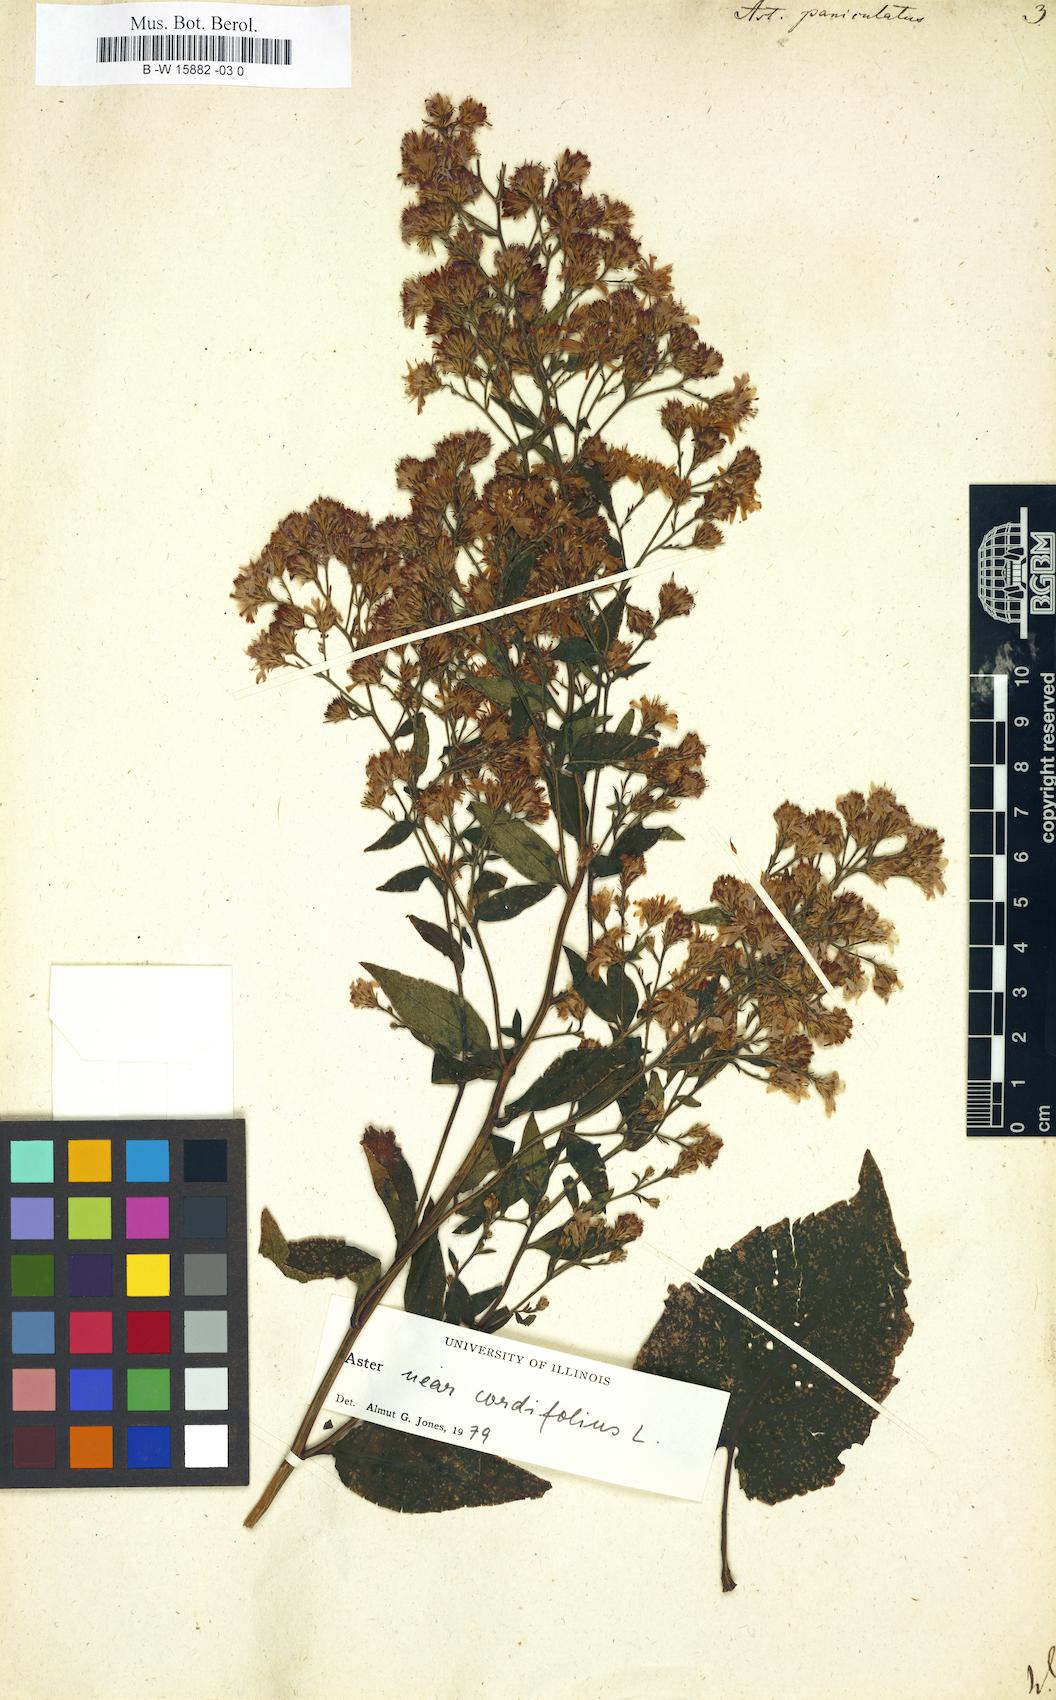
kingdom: Plantae
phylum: Tracheophyta
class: Magnoliopsida
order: Asterales
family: Asteraceae
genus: Symphyotrichum
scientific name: Symphyotrichum lanceolatum
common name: Panicled aster
